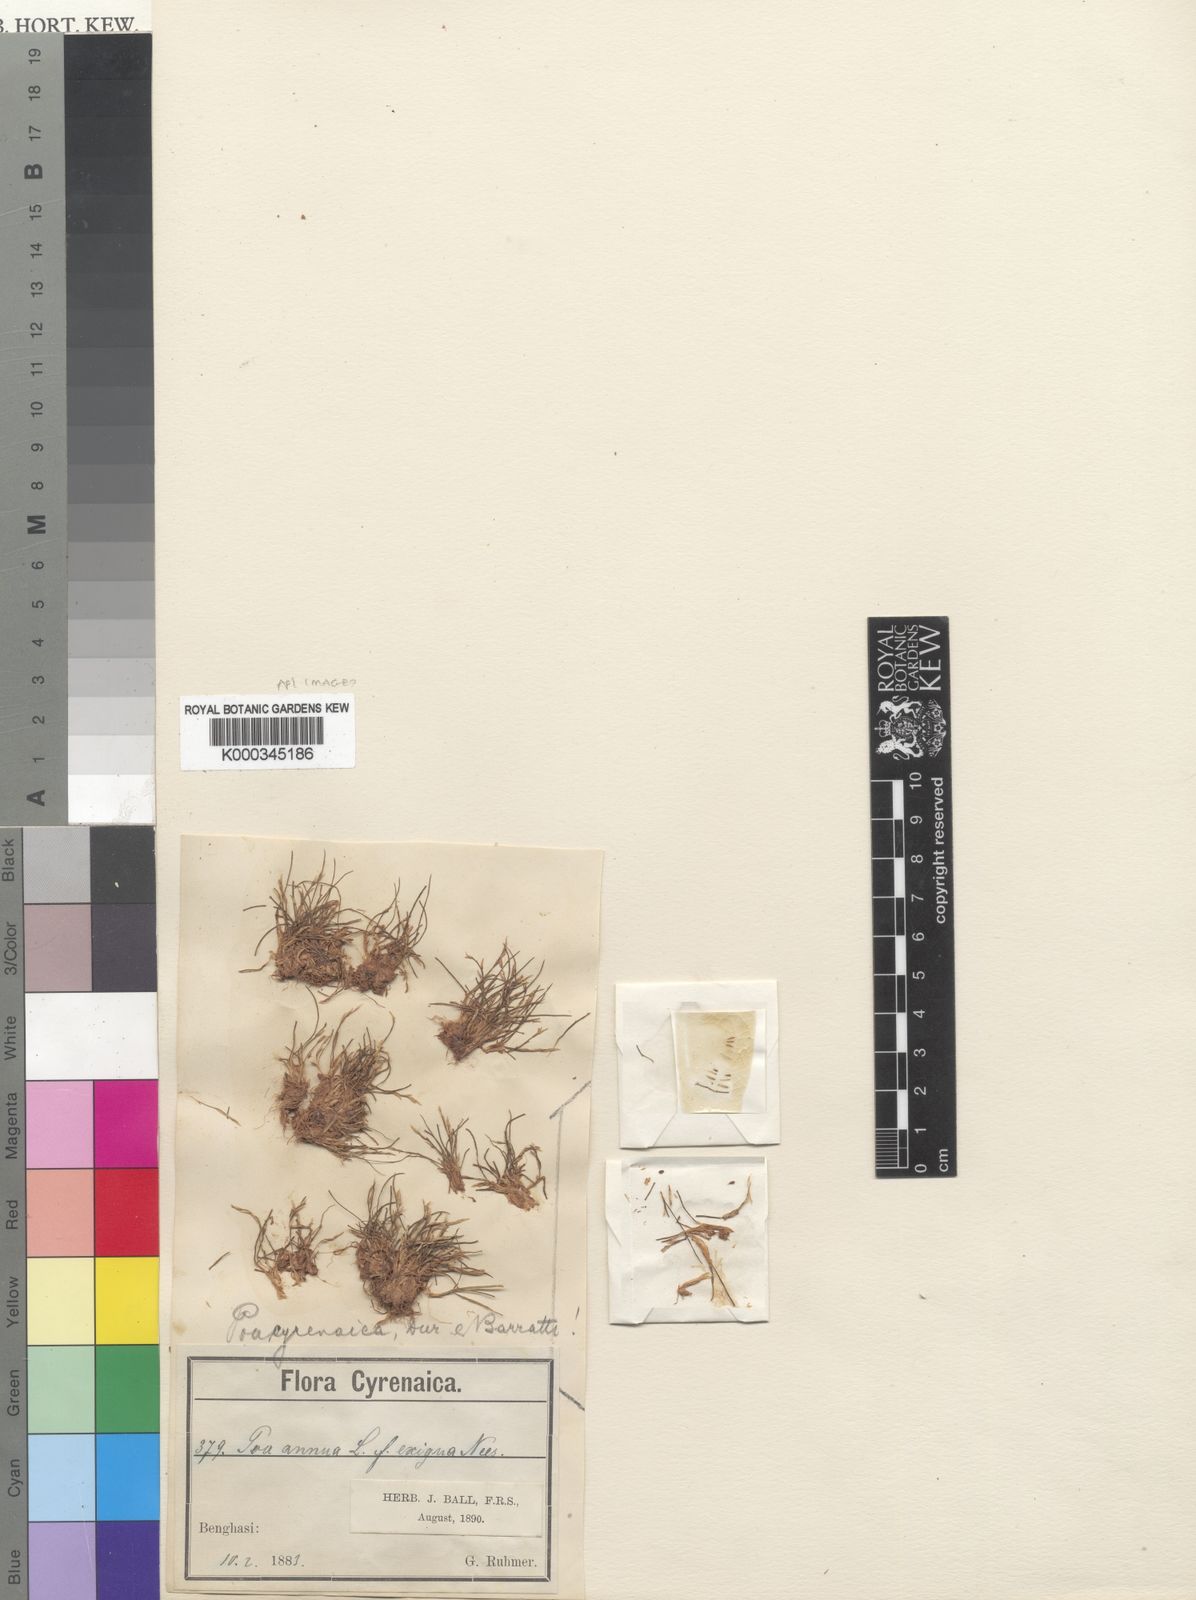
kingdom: Plantae
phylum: Tracheophyta
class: Liliopsida
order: Poales
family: Poaceae
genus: Poa
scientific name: Poa cyrenaica
